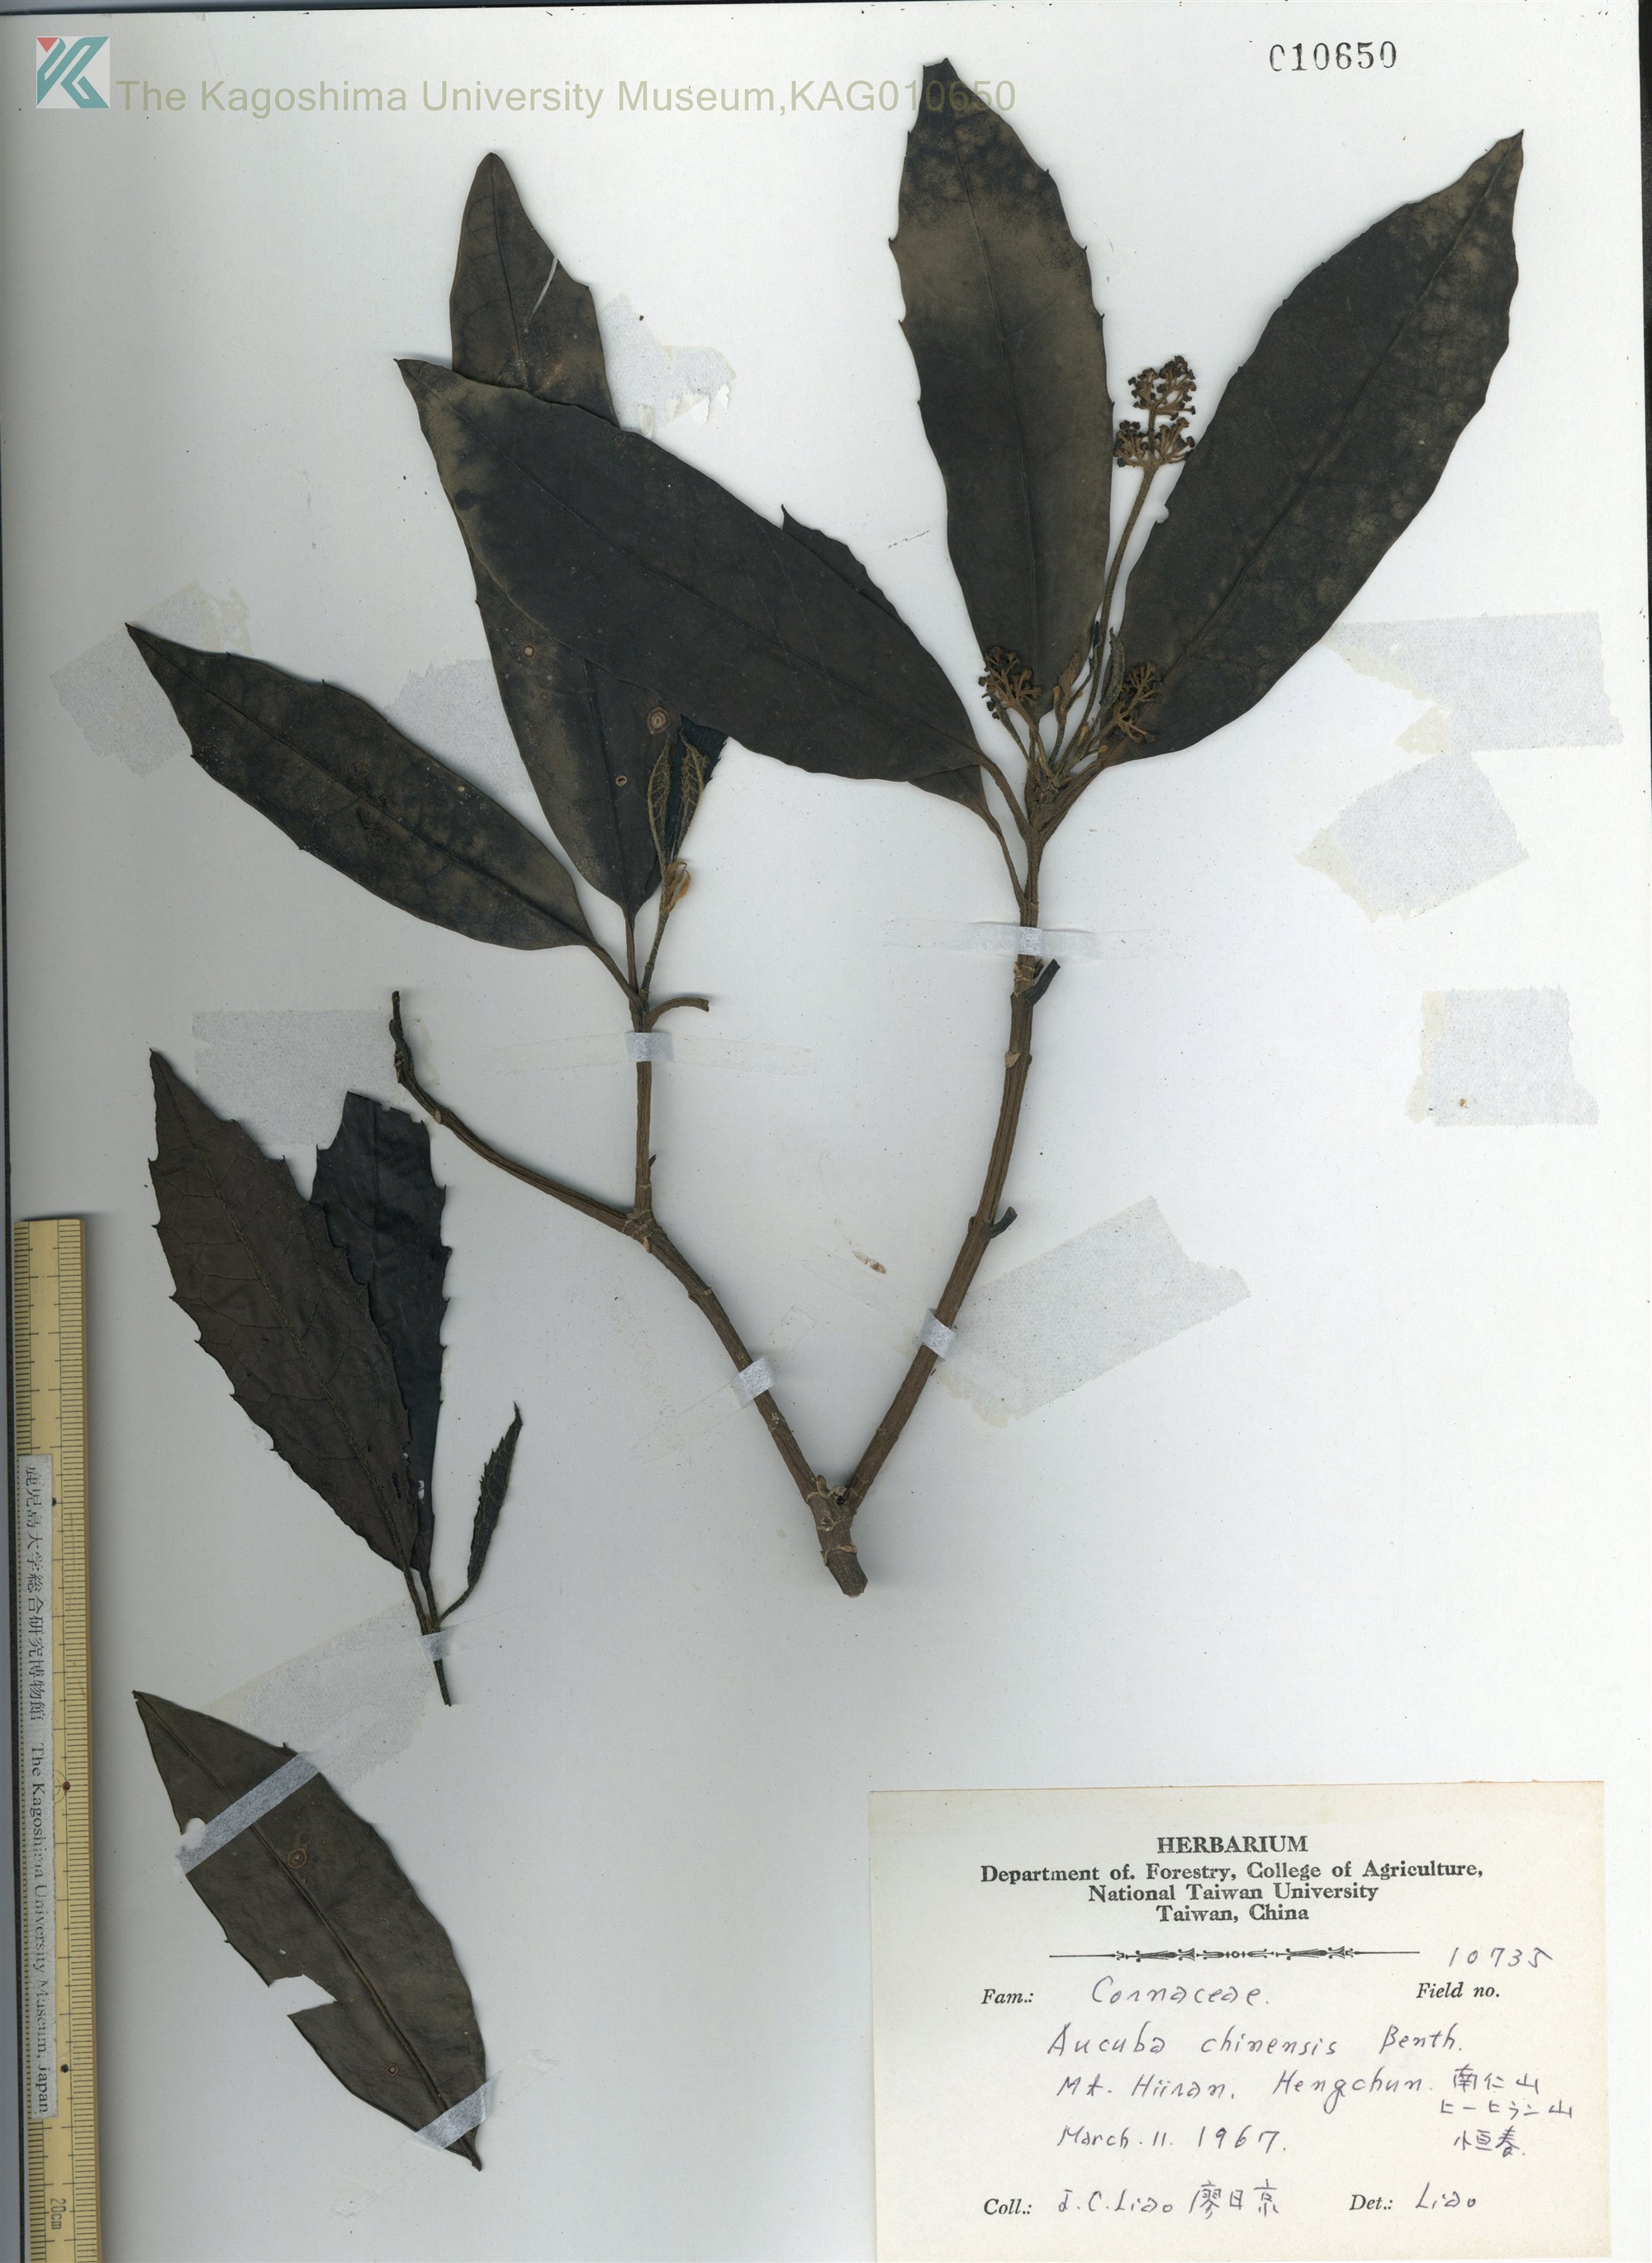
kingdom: Plantae
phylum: Tracheophyta
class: Magnoliopsida
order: Garryales
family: Garryaceae
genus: Aucuba
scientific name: Aucuba chinensis
